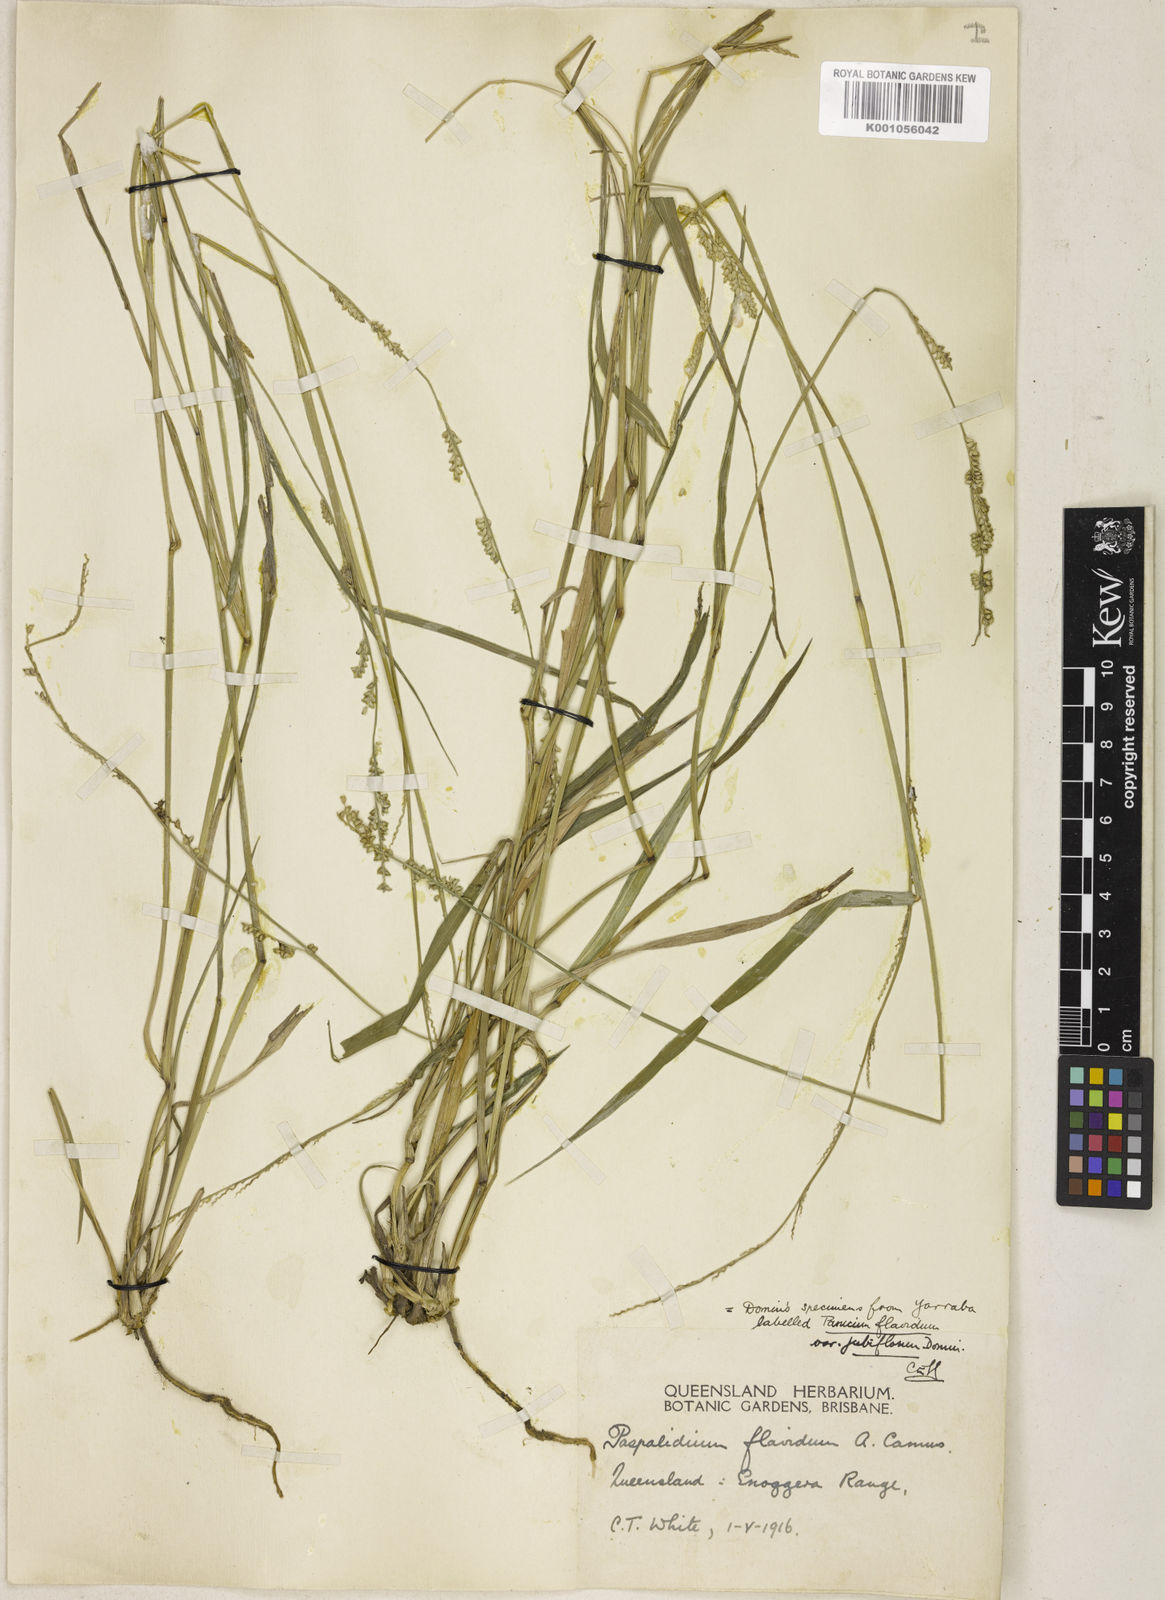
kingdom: Plantae
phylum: Tracheophyta
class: Liliopsida
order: Poales
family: Poaceae
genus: Setaria
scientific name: Setaria flavida
